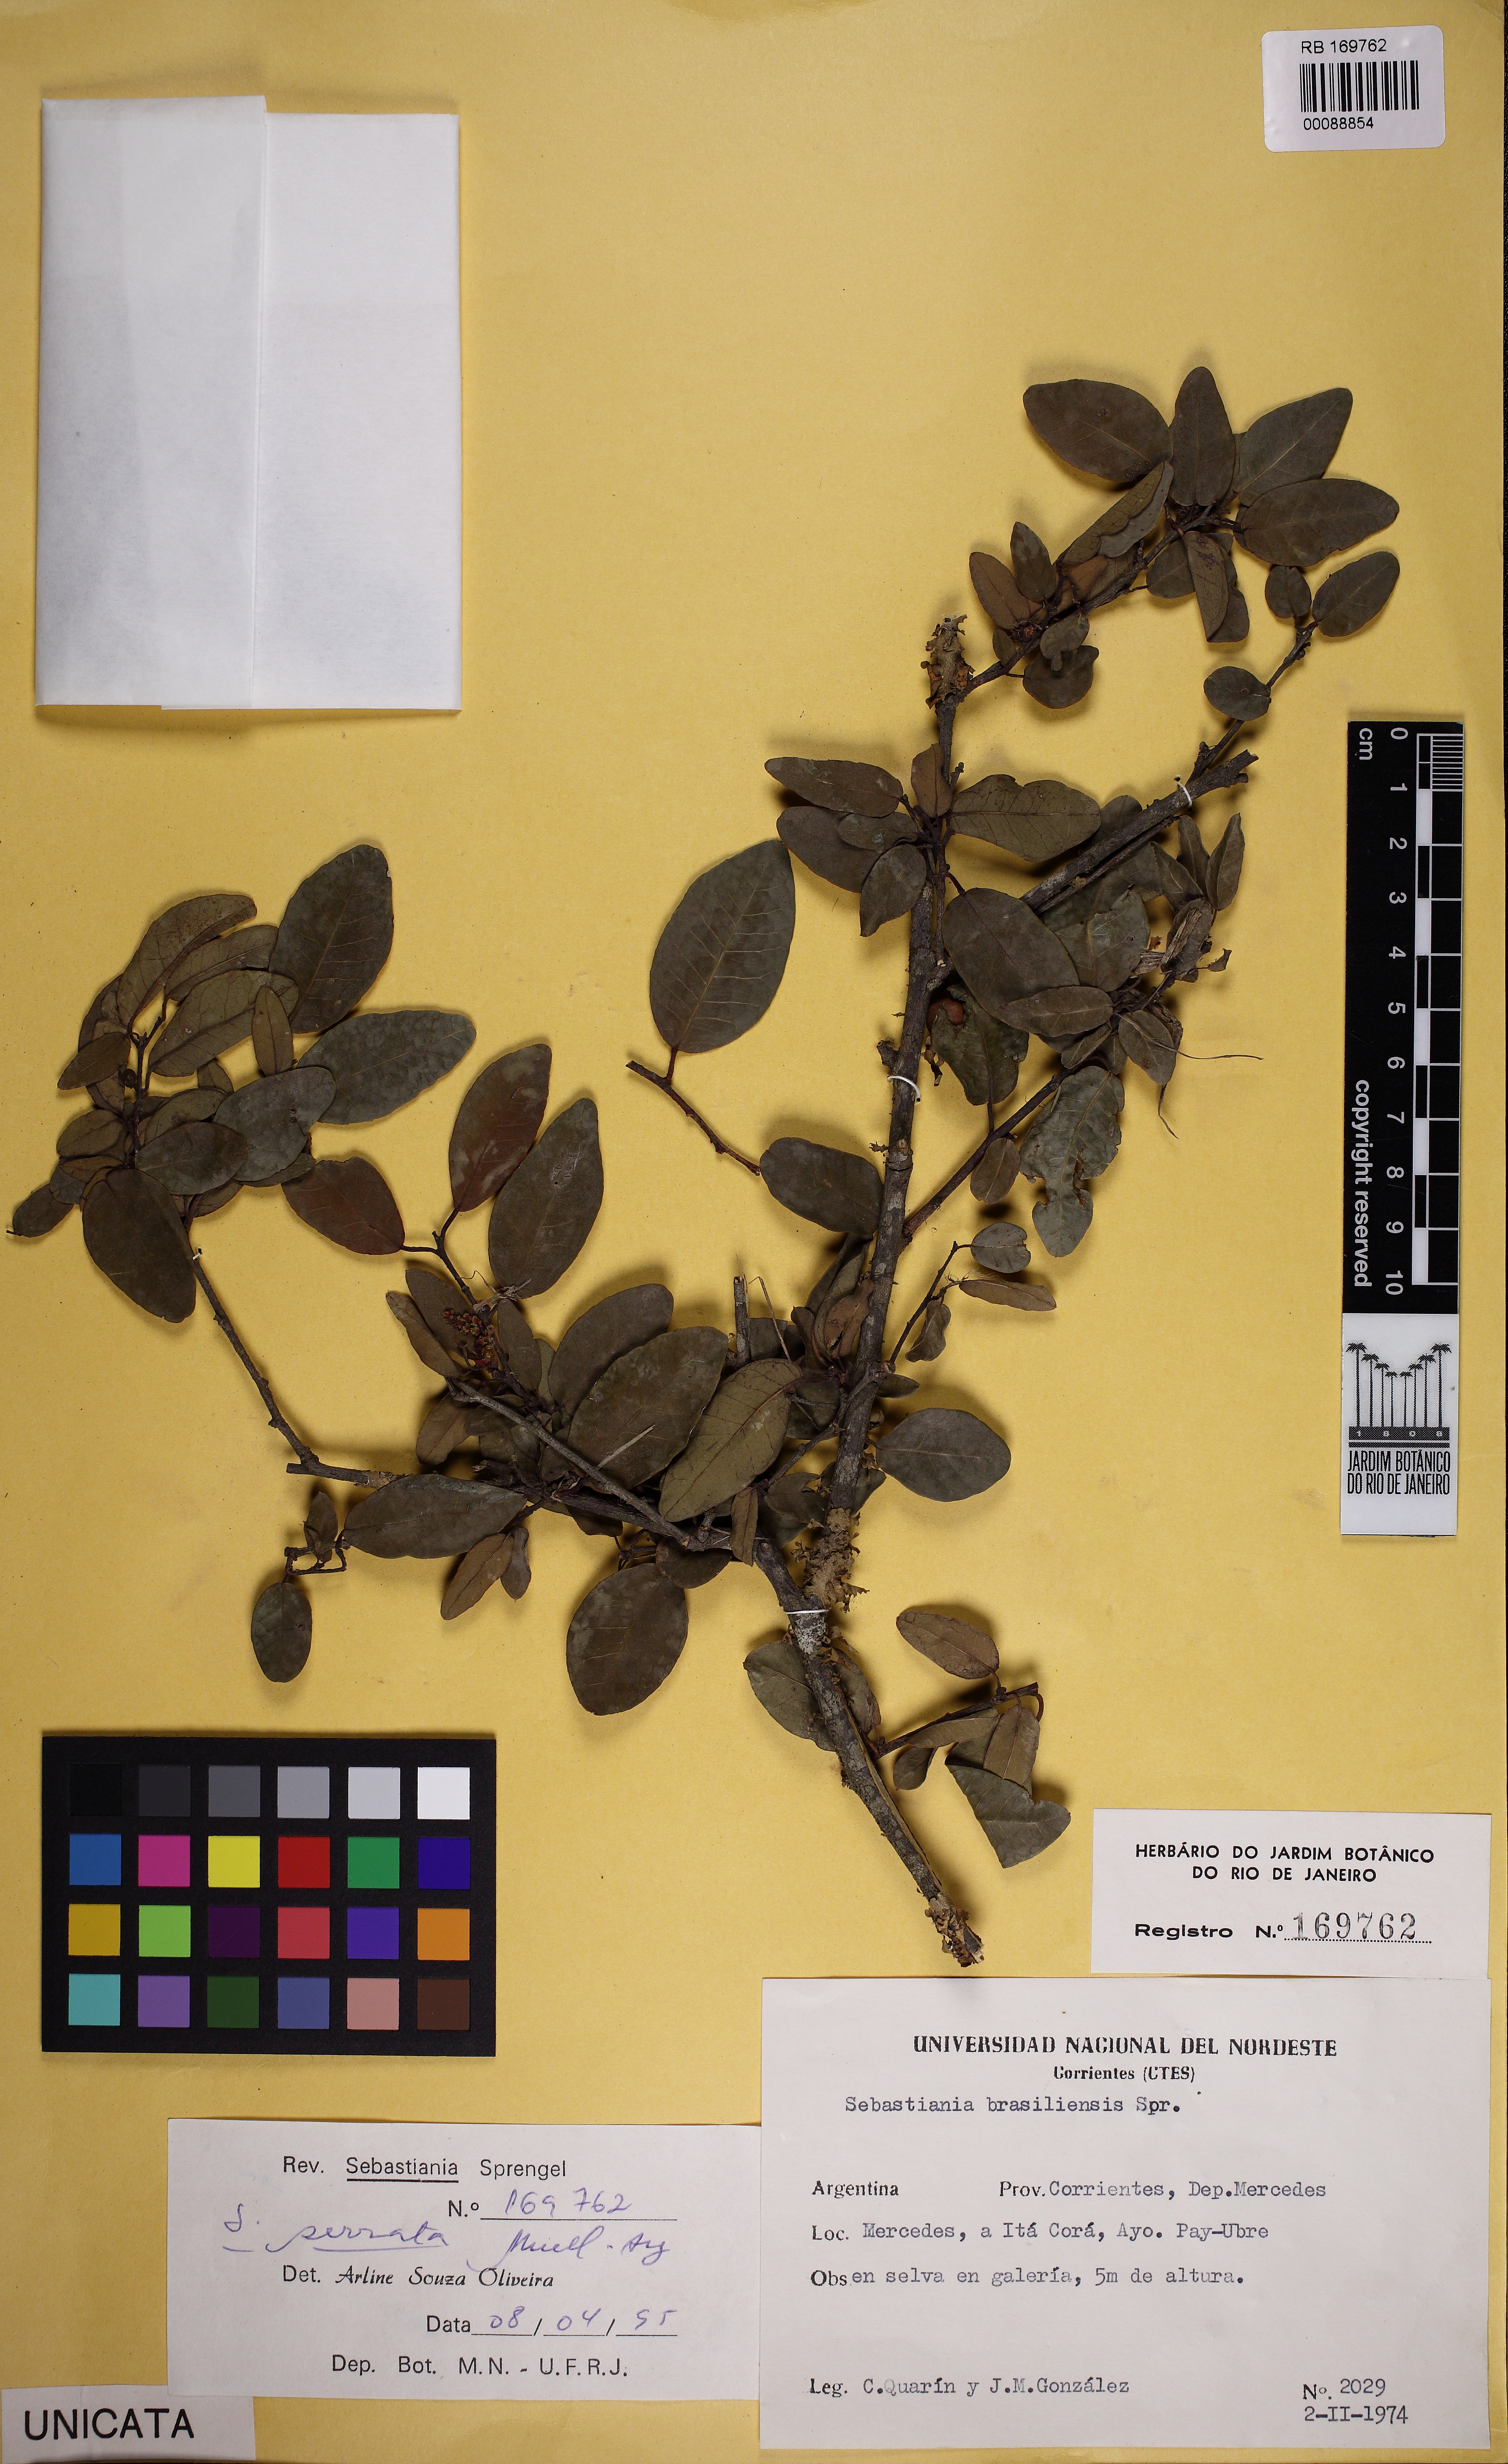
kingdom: Plantae
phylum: Tracheophyta
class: Magnoliopsida
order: Malpighiales
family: Euphorbiaceae
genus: Sebastiania
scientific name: Sebastiania serrata
